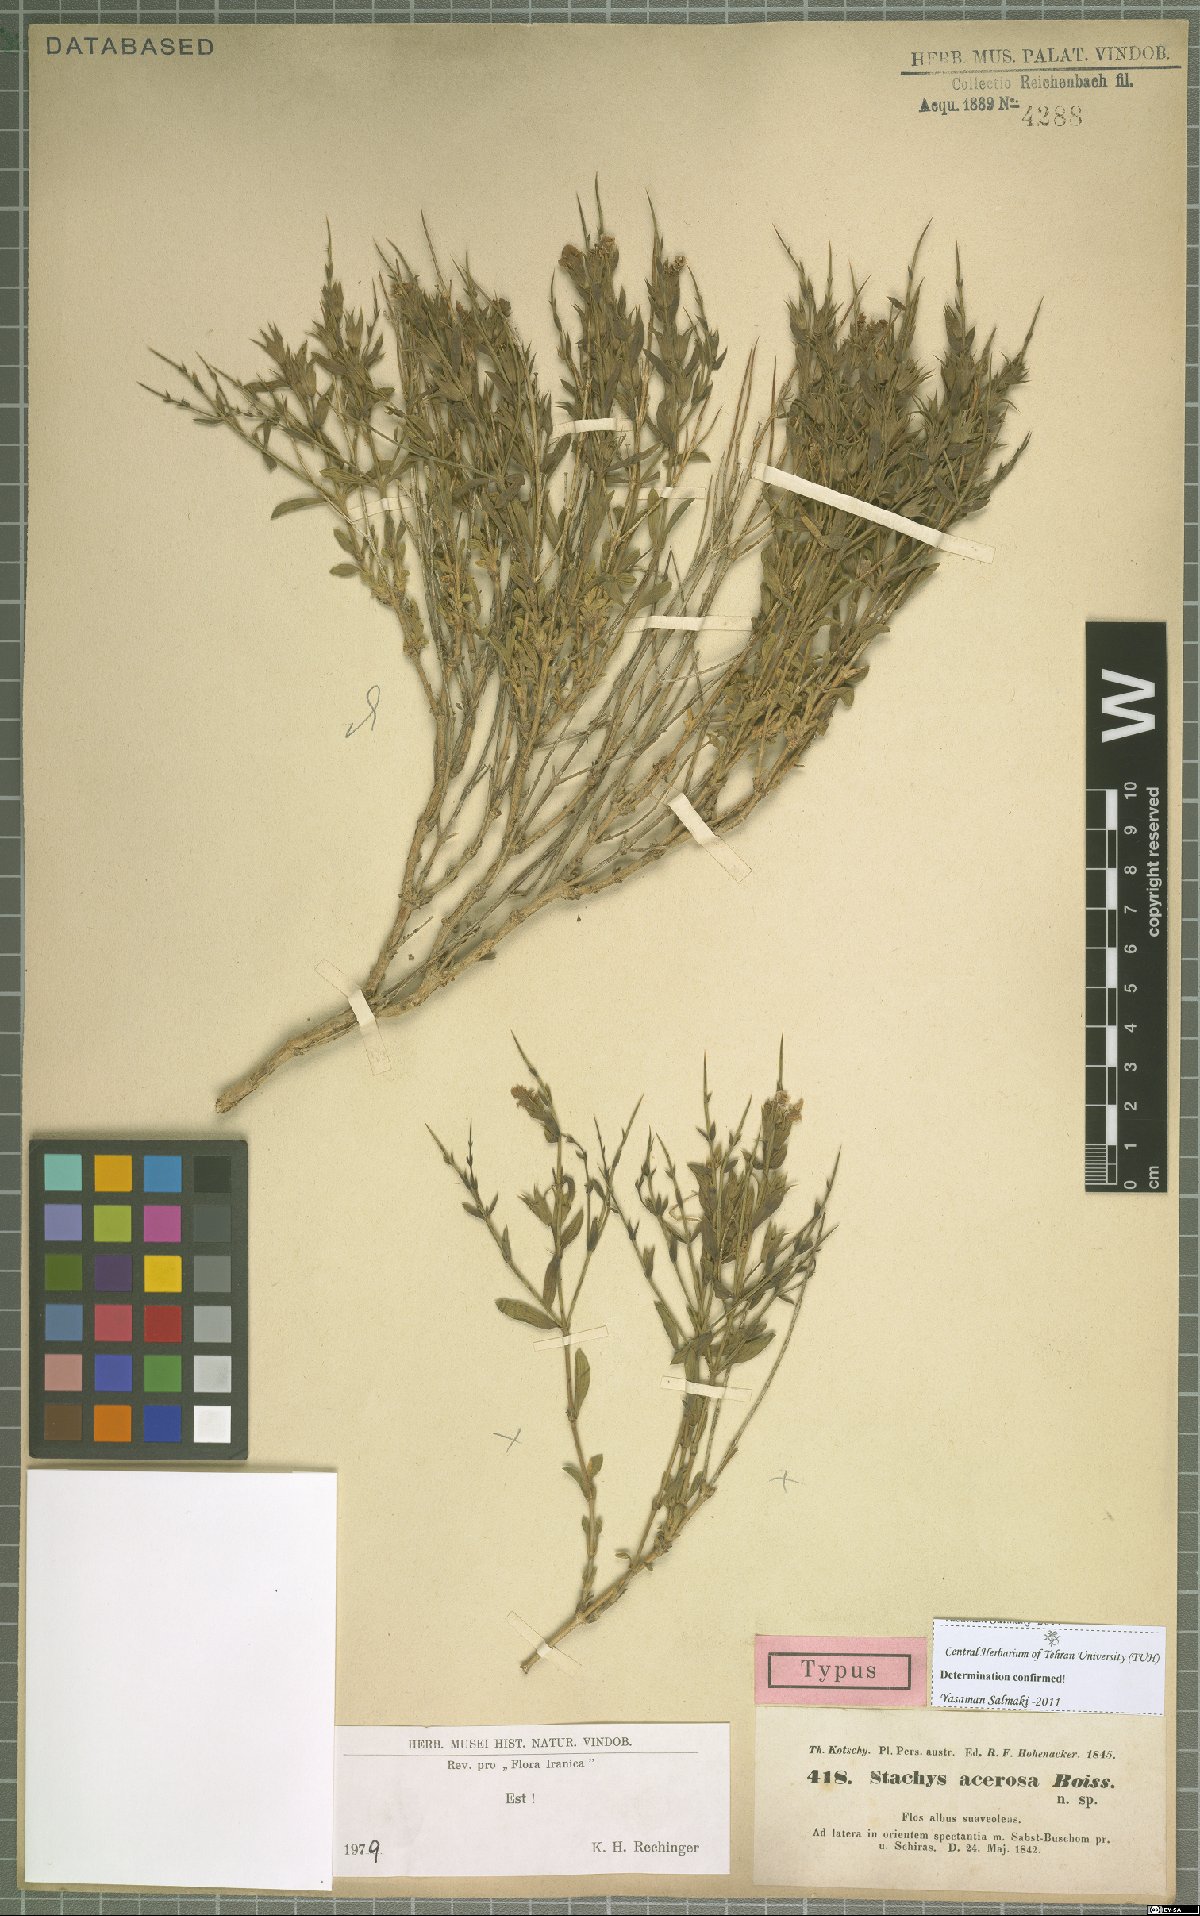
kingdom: Plantae
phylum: Tracheophyta
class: Magnoliopsida
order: Lamiales
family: Lamiaceae
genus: Stachys
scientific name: Stachys acerosa
